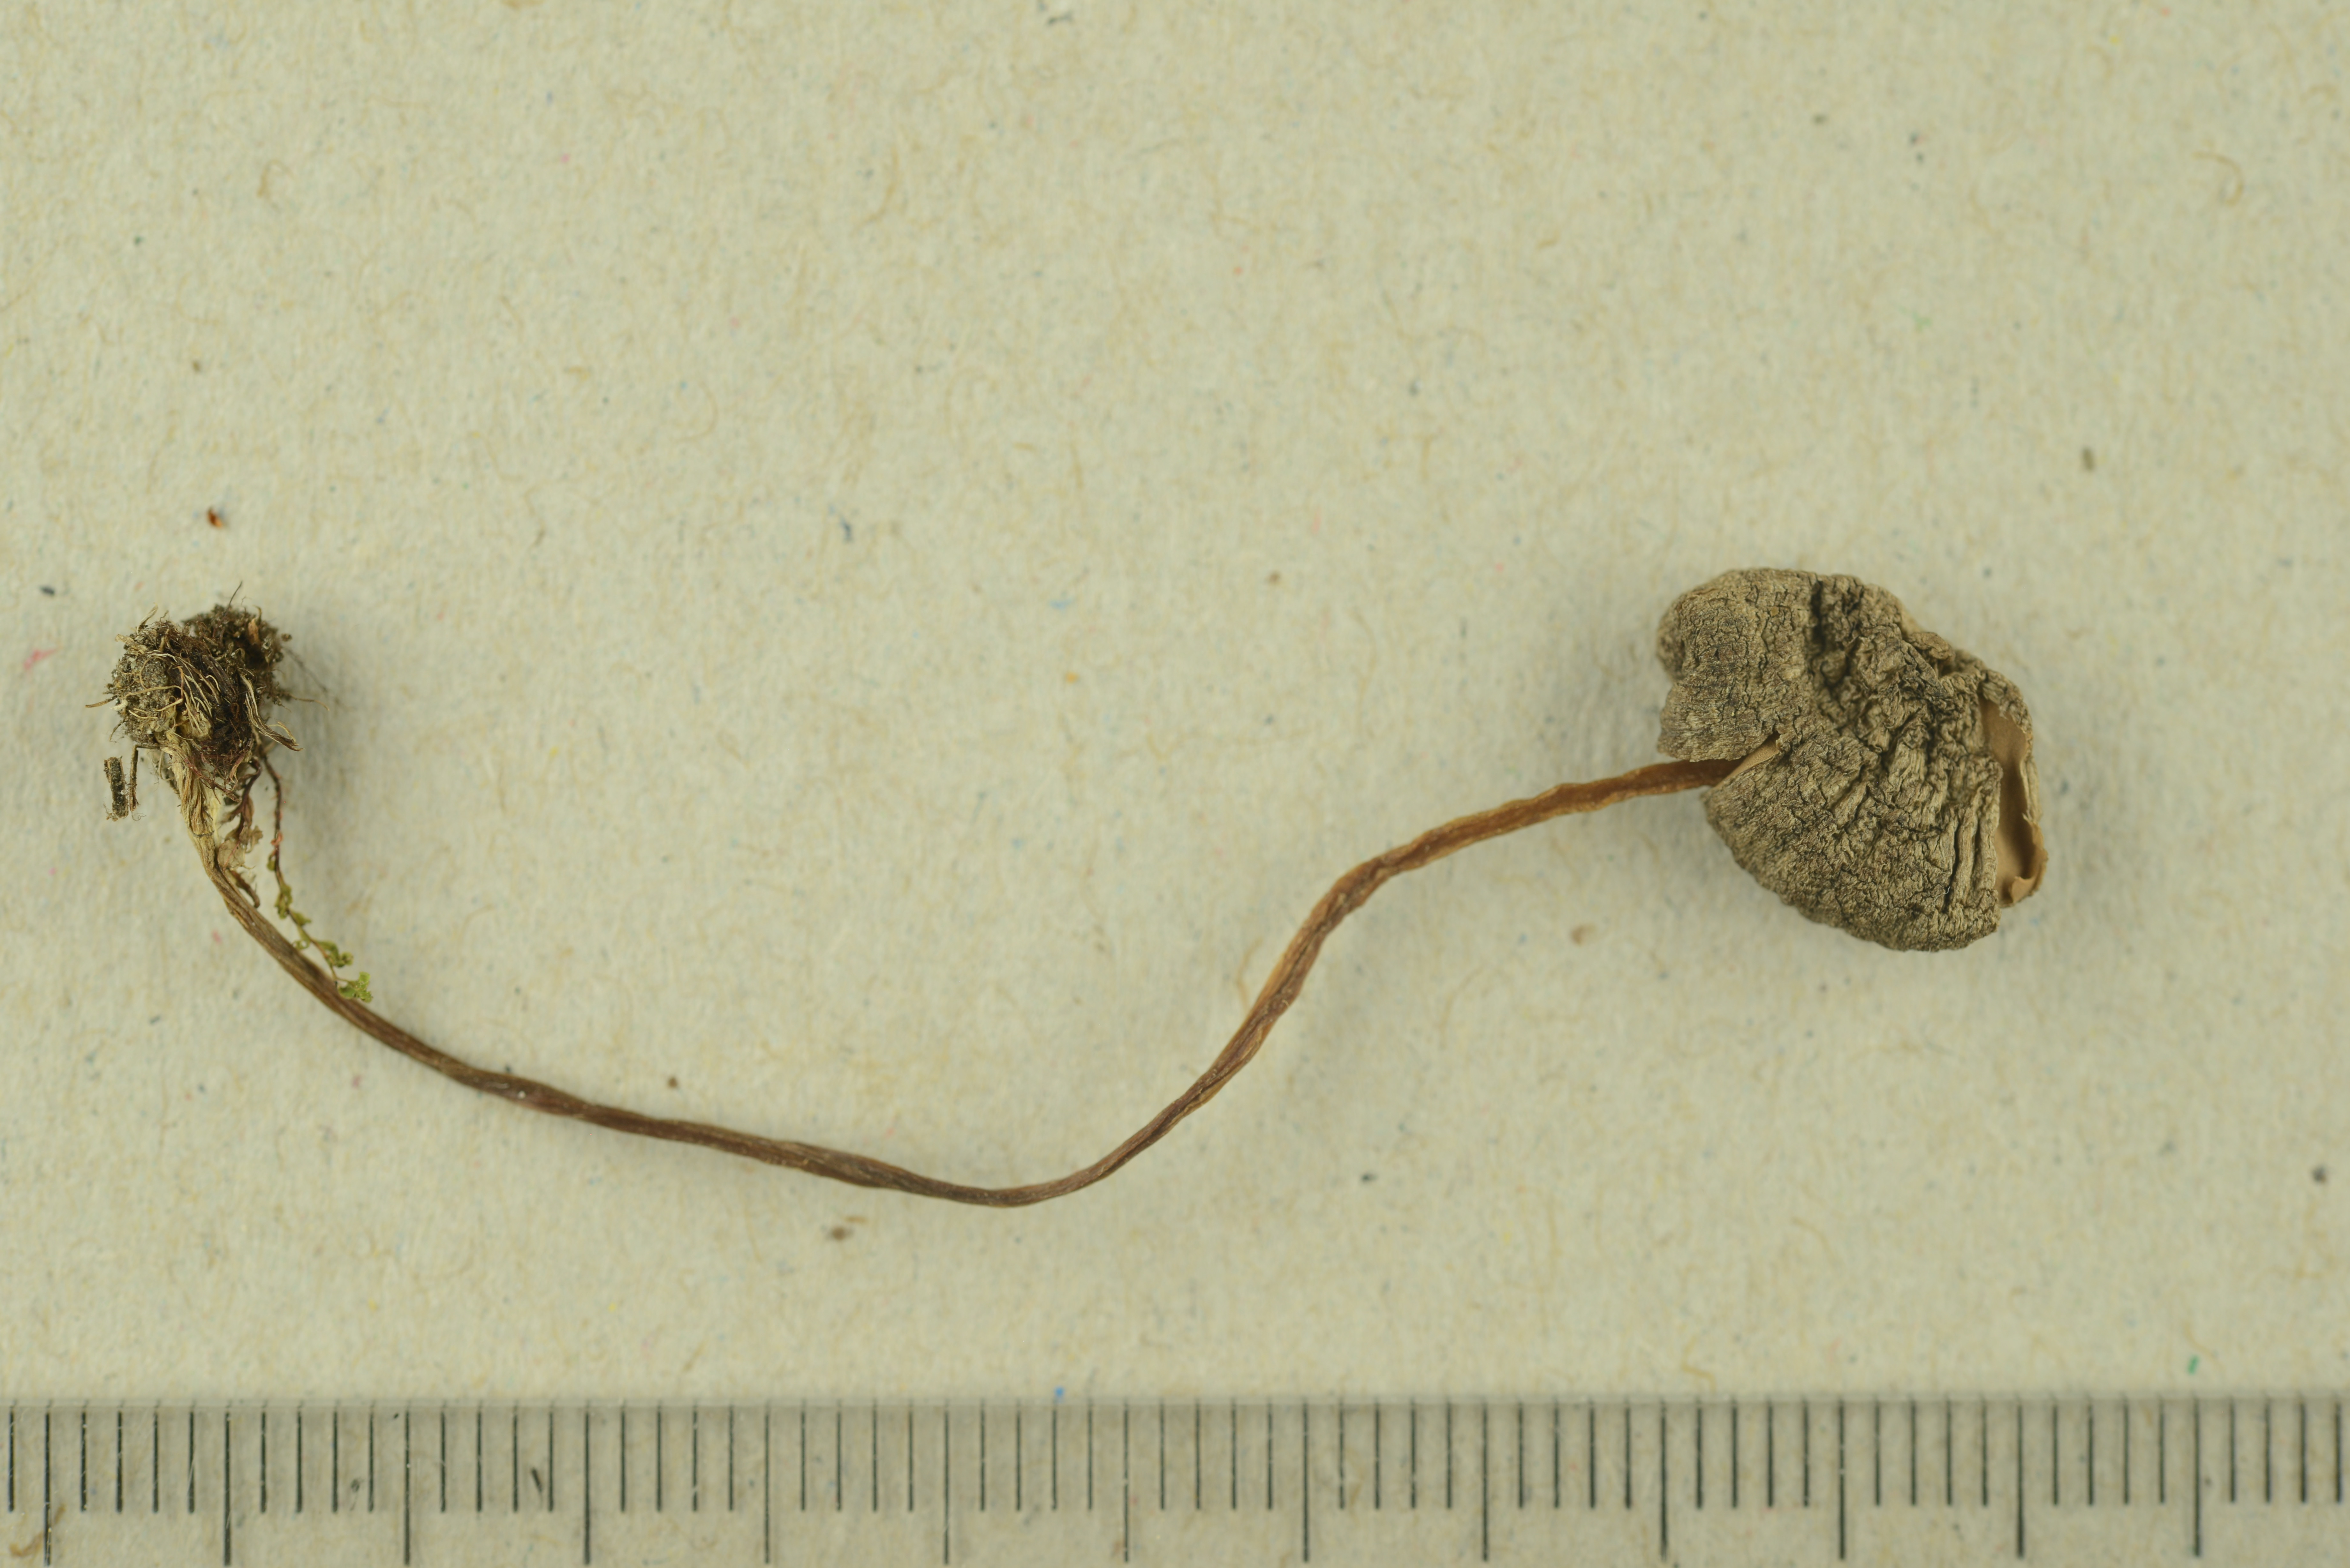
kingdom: Fungi
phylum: Basidiomycota
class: Agaricomycetes
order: Agaricales
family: Entolomataceae
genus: Entoloma
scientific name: Entoloma pararhombisporum
